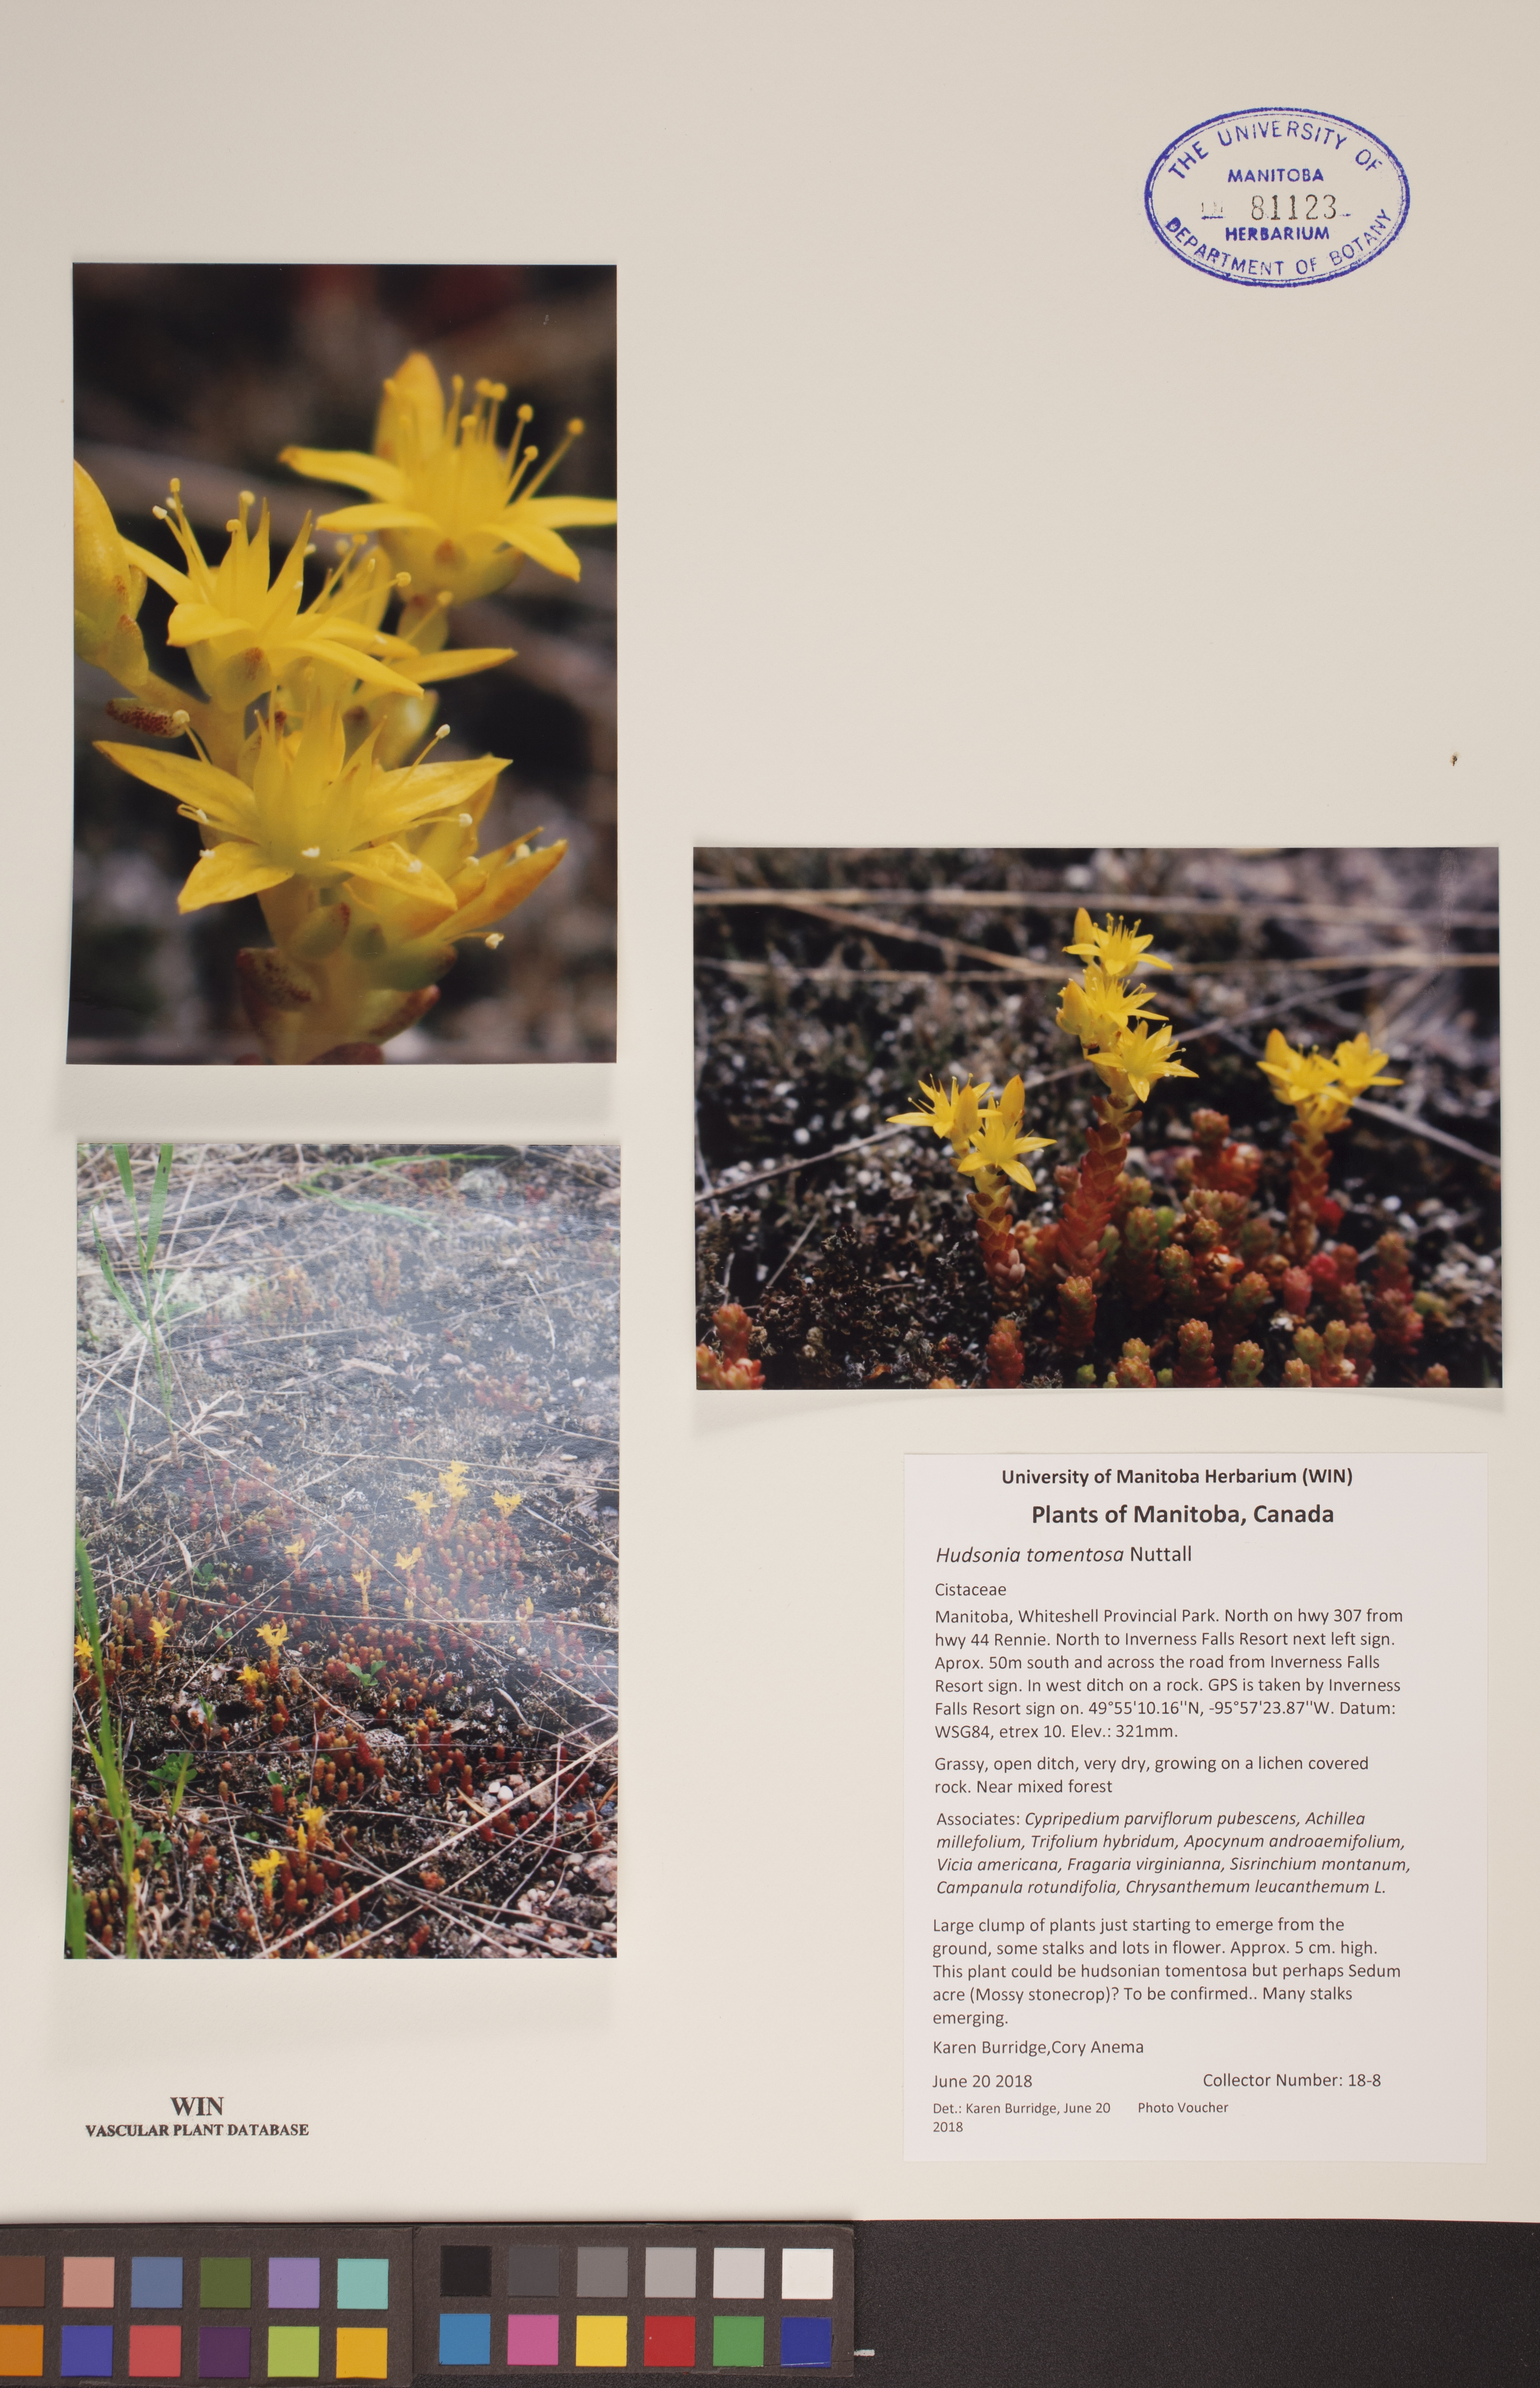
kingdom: Plantae
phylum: Tracheophyta
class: Magnoliopsida
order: Malvales
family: Cistaceae
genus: Hudsonia
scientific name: Hudsonia tomentosa
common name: Beach-heath
